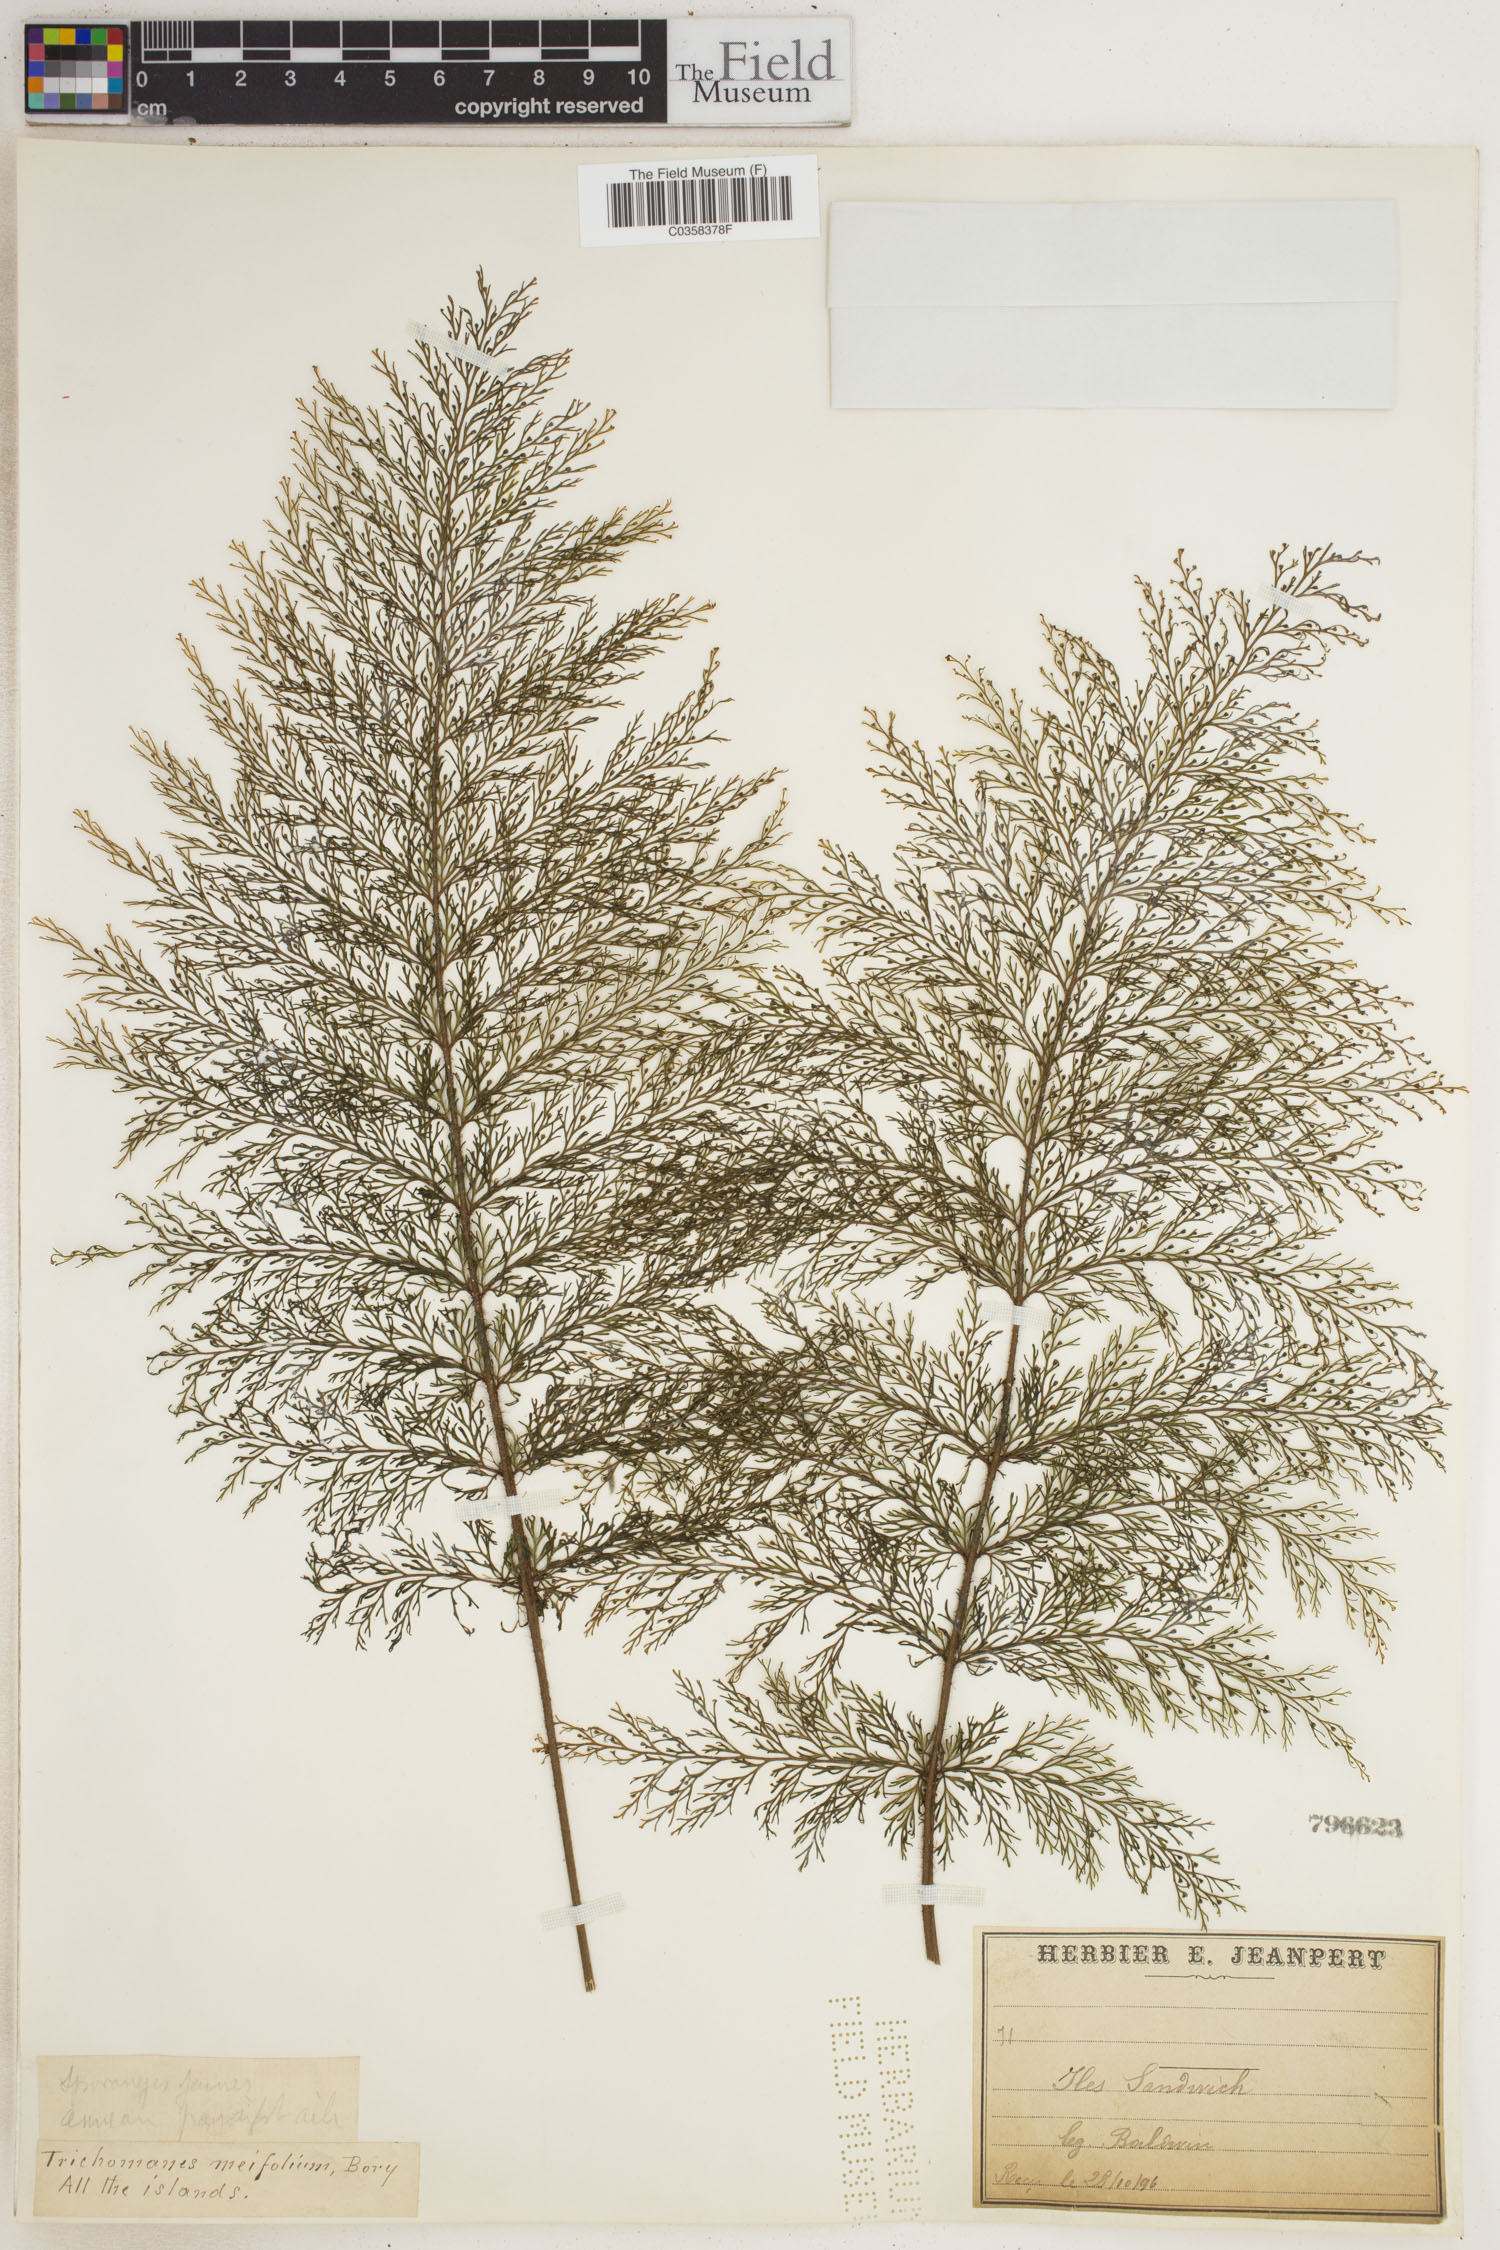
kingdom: Plantae
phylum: Tracheophyta
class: Polypodiopsida
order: Hymenophyllales
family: Hymenophyllaceae
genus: Abrodictyum
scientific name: Abrodictyum parviflorum
